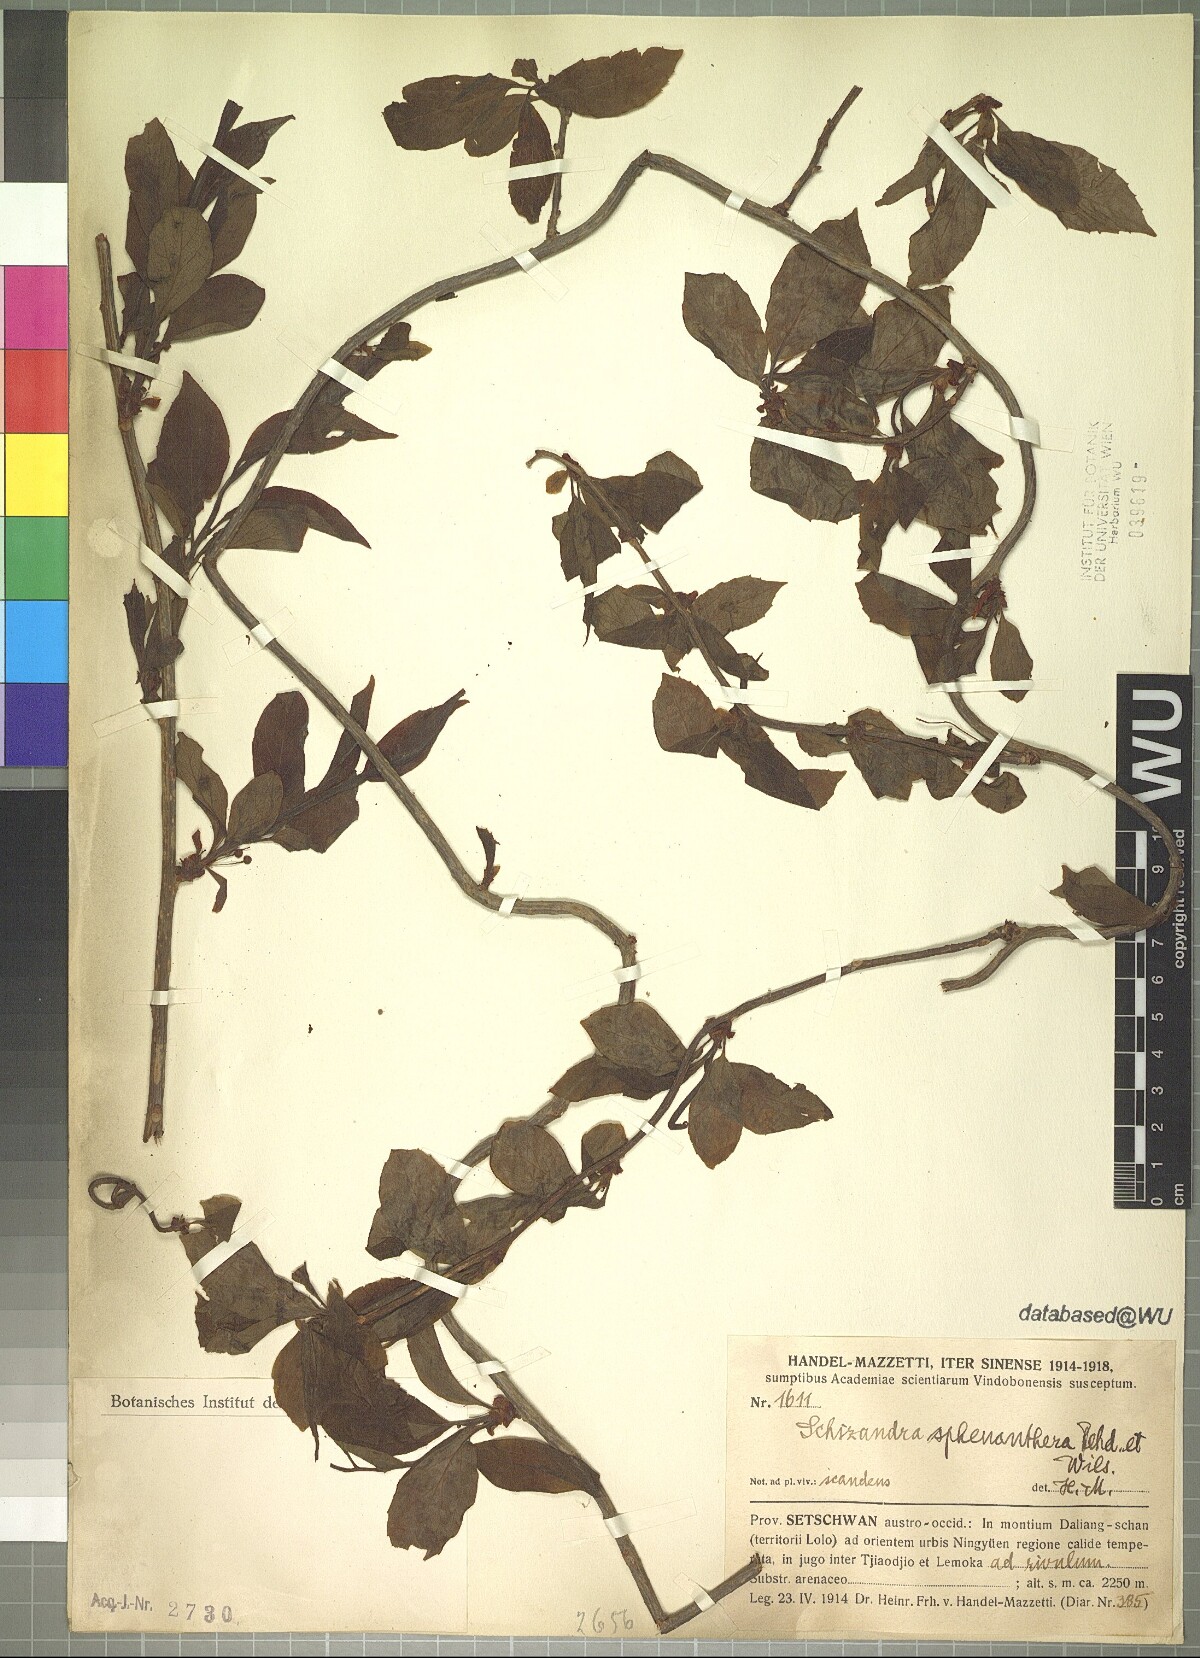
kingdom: Plantae
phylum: Tracheophyta
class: Magnoliopsida
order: Austrobaileyales
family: Schisandraceae
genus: Schisandra
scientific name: Schisandra sphenanthera
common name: Lemonwood
